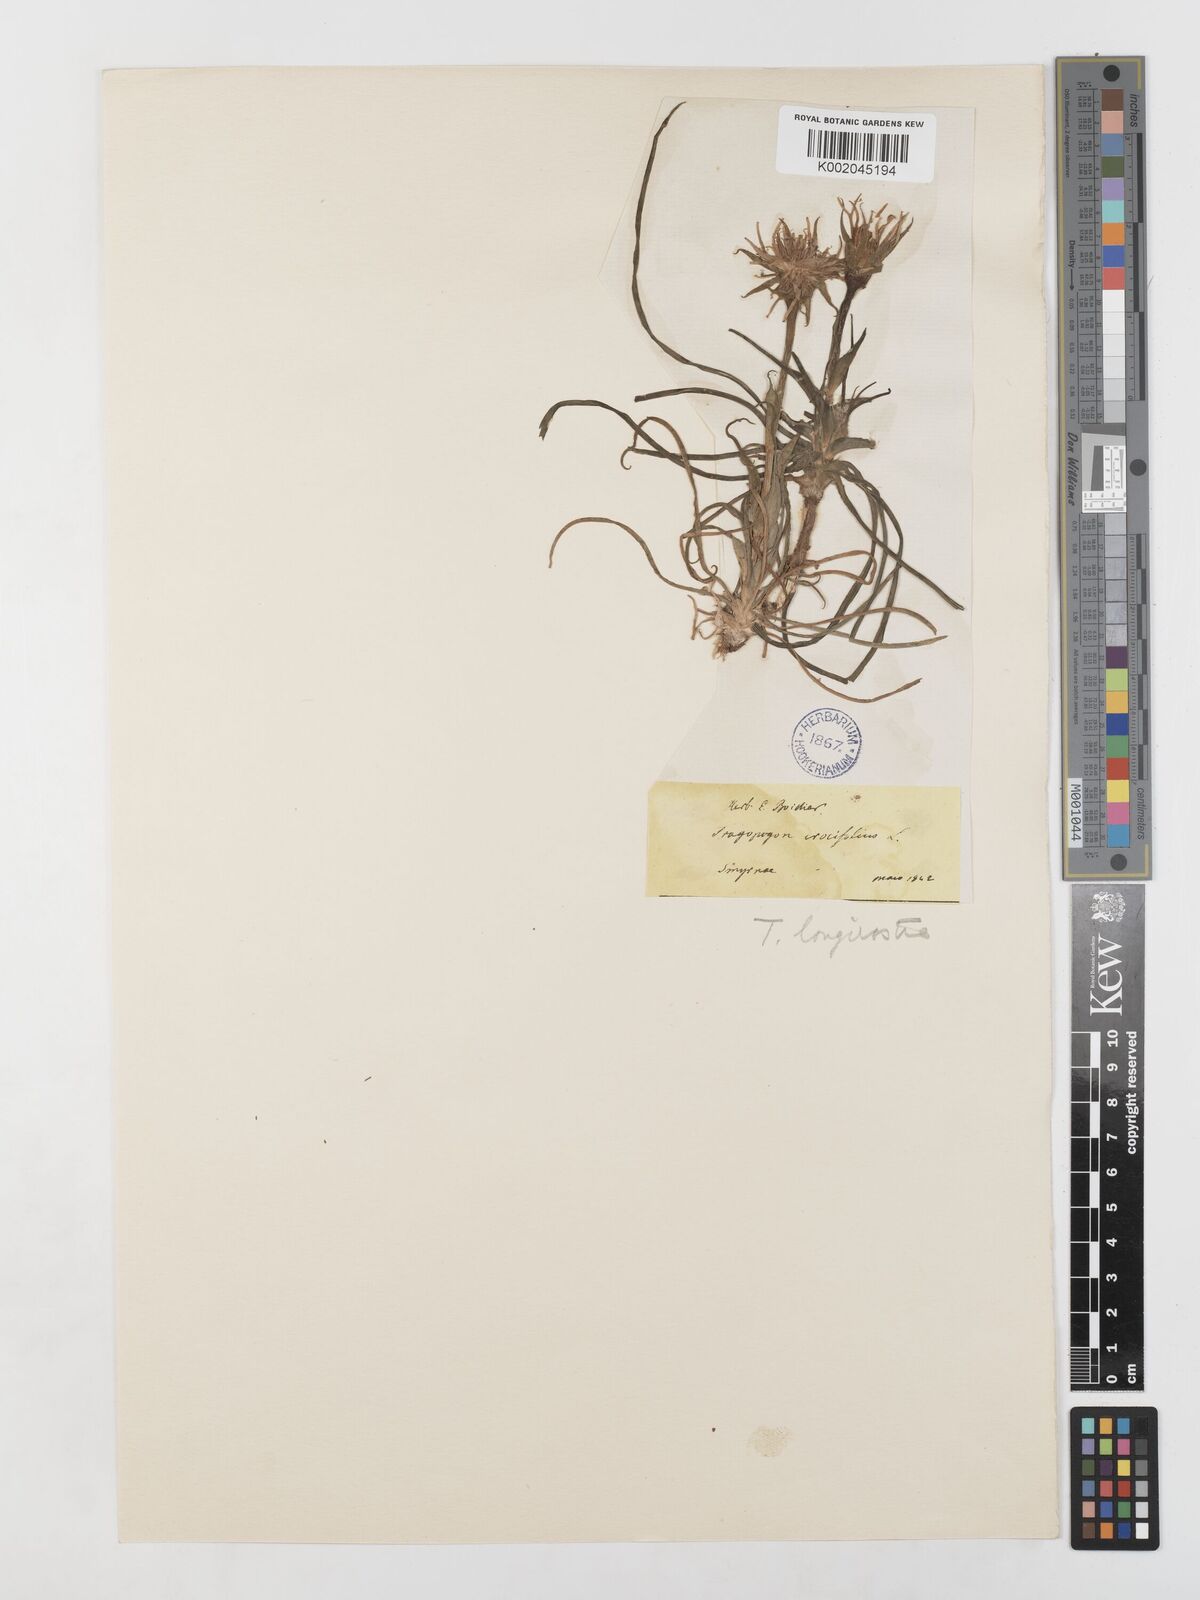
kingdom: Plantae
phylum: Tracheophyta
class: Magnoliopsida
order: Asterales
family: Asteraceae
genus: Tragopogon
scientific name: Tragopogon coelesyriacus
